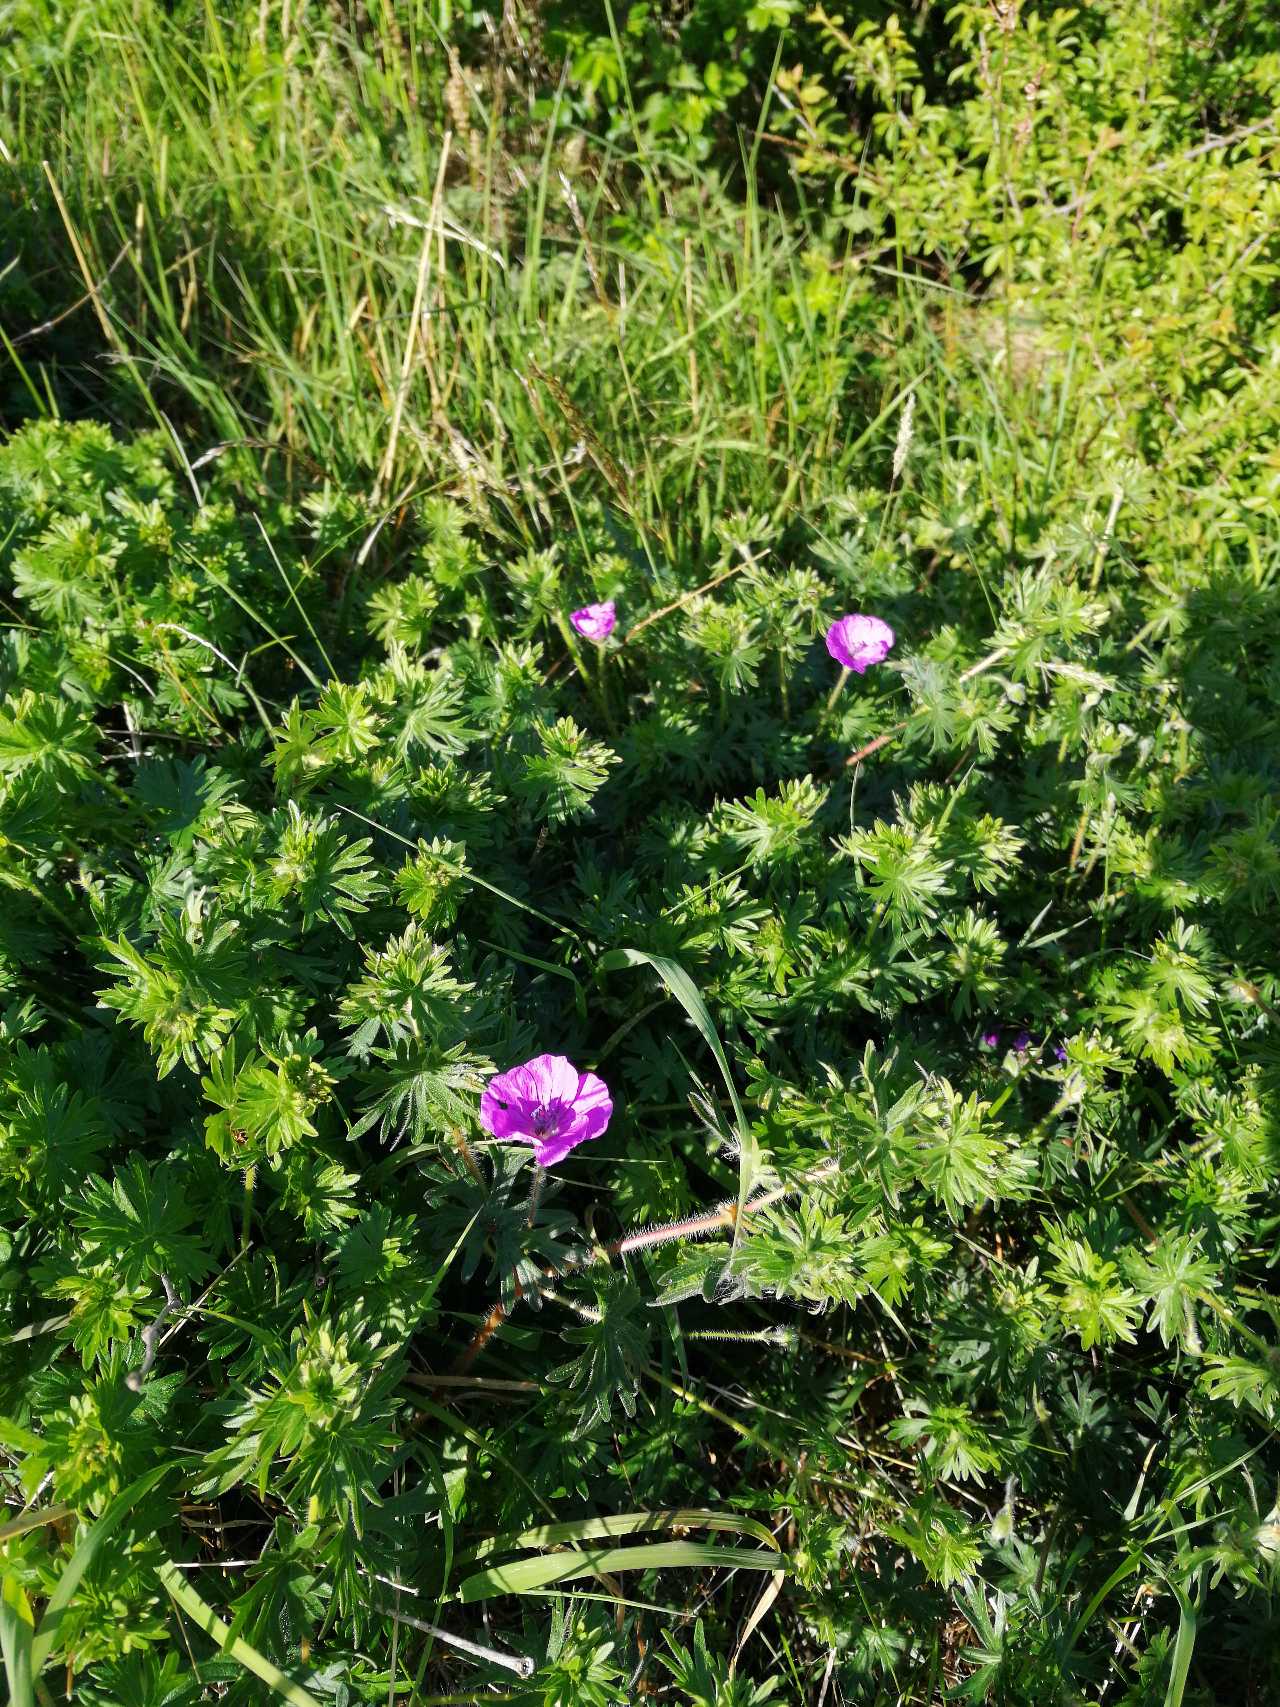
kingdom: Plantae
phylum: Tracheophyta
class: Magnoliopsida
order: Geraniales
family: Geraniaceae
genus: Geranium
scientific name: Geranium sanguineum
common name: Blodrød storkenæb
